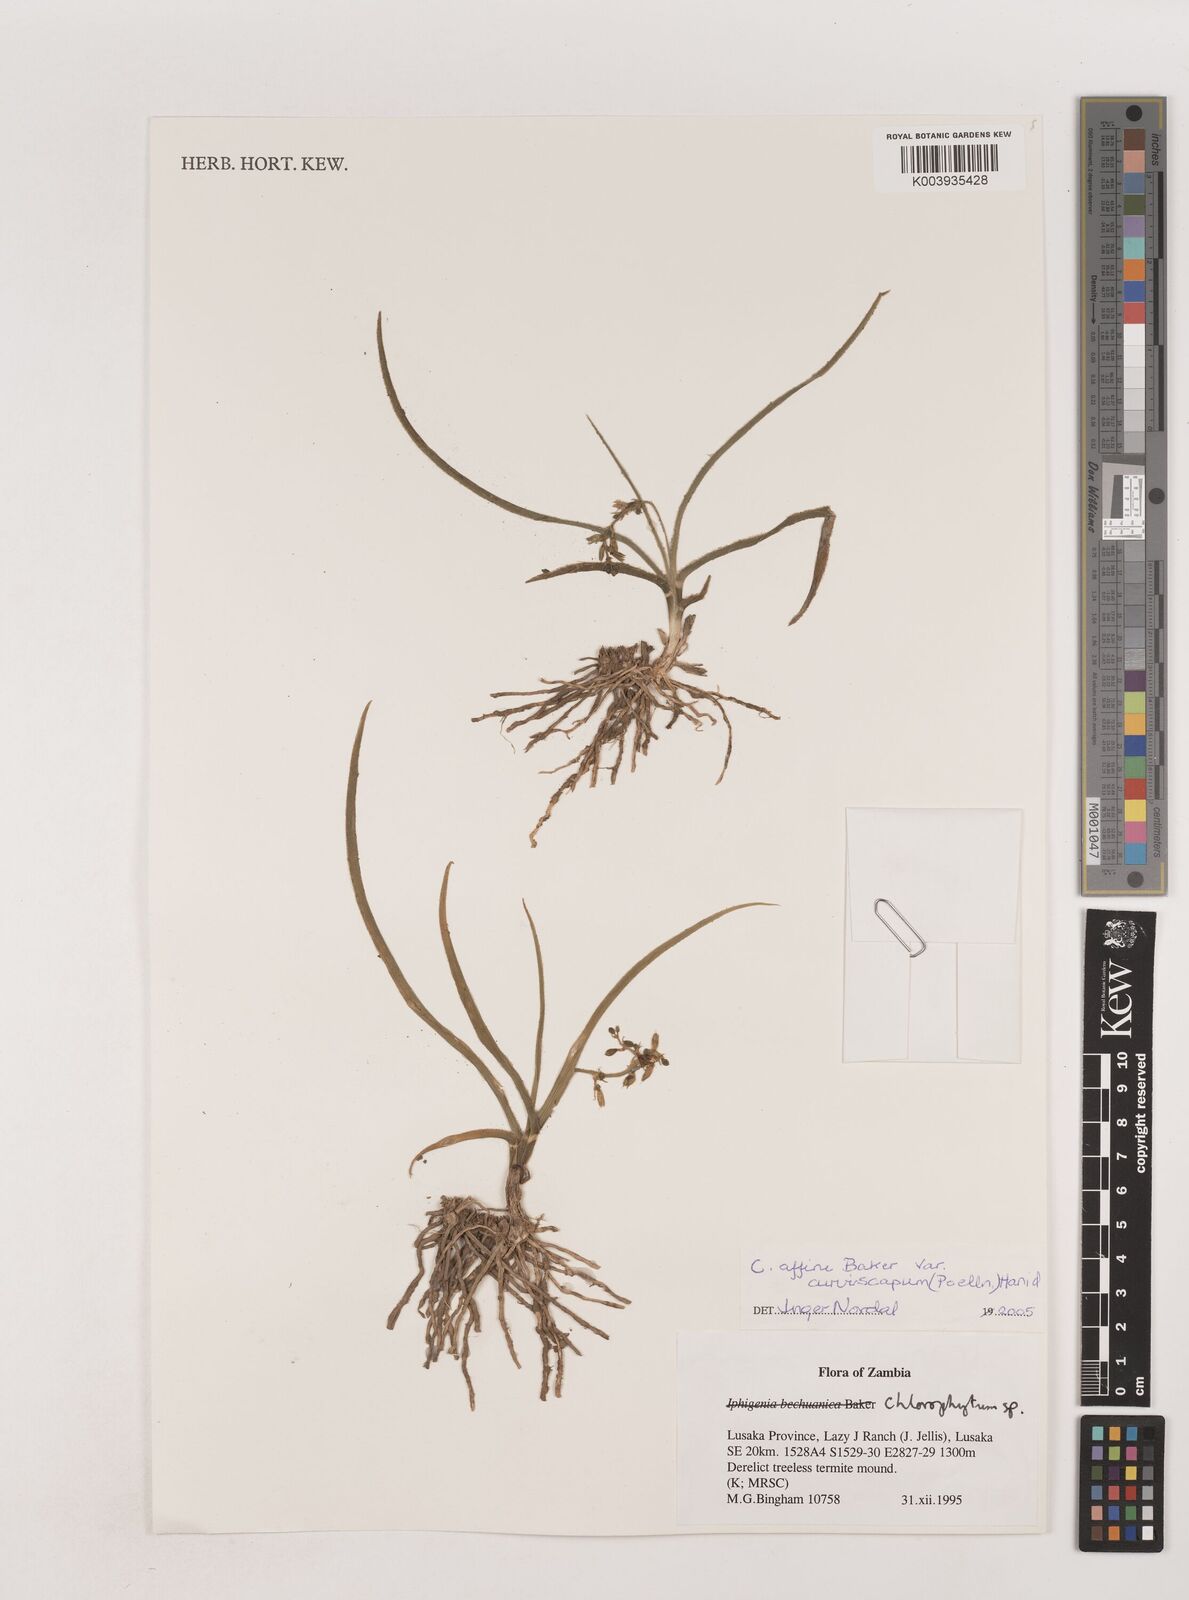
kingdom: Plantae
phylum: Tracheophyta
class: Liliopsida
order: Asparagales
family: Asparagaceae
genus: Chlorophytum
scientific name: Chlorophytum tordense
